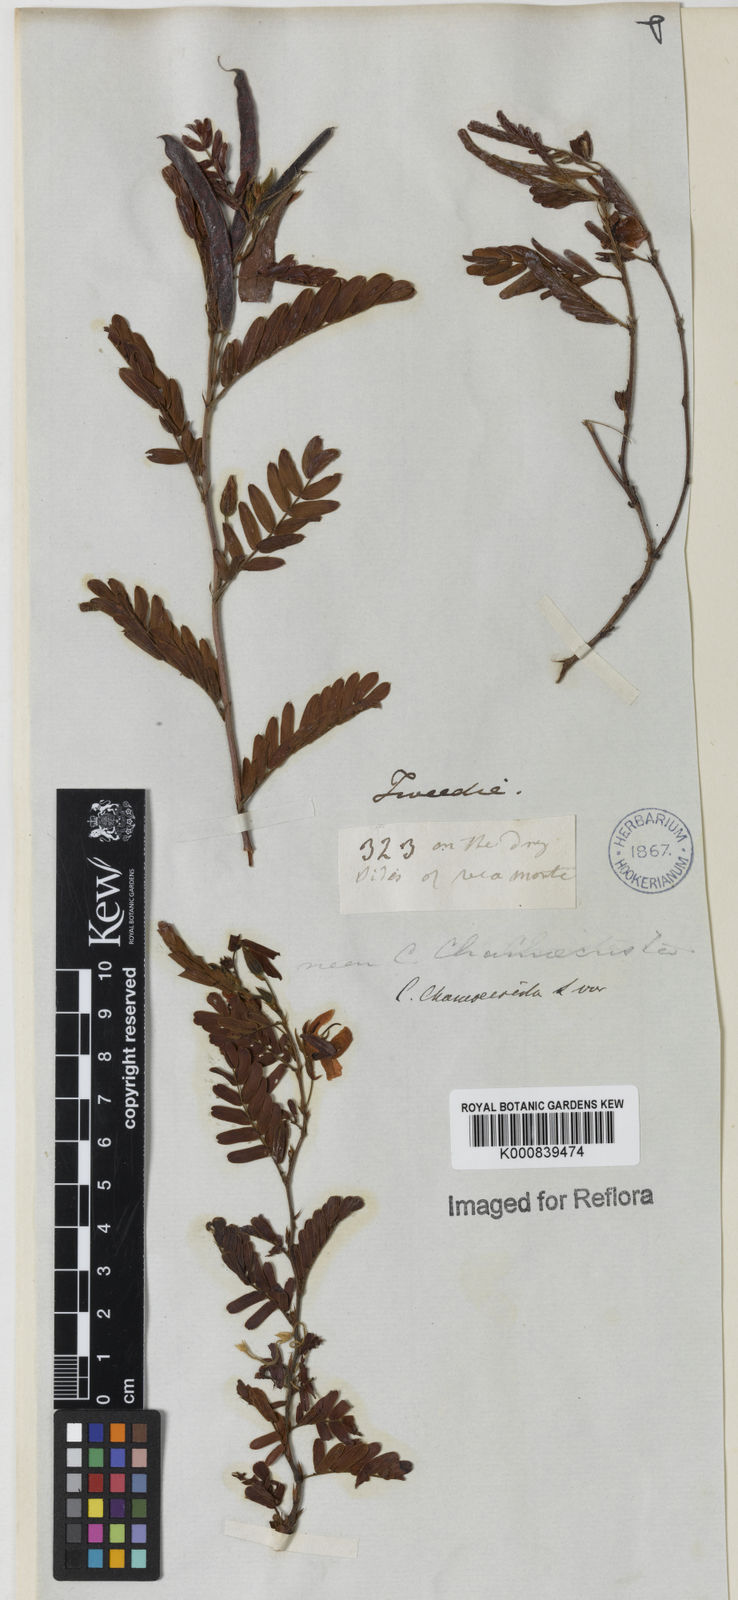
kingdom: Plantae
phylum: Tracheophyta
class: Magnoliopsida
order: Fabales
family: Fabaceae
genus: Chamaecrista
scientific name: Chamaecrista glandulosa
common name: Wild peas
